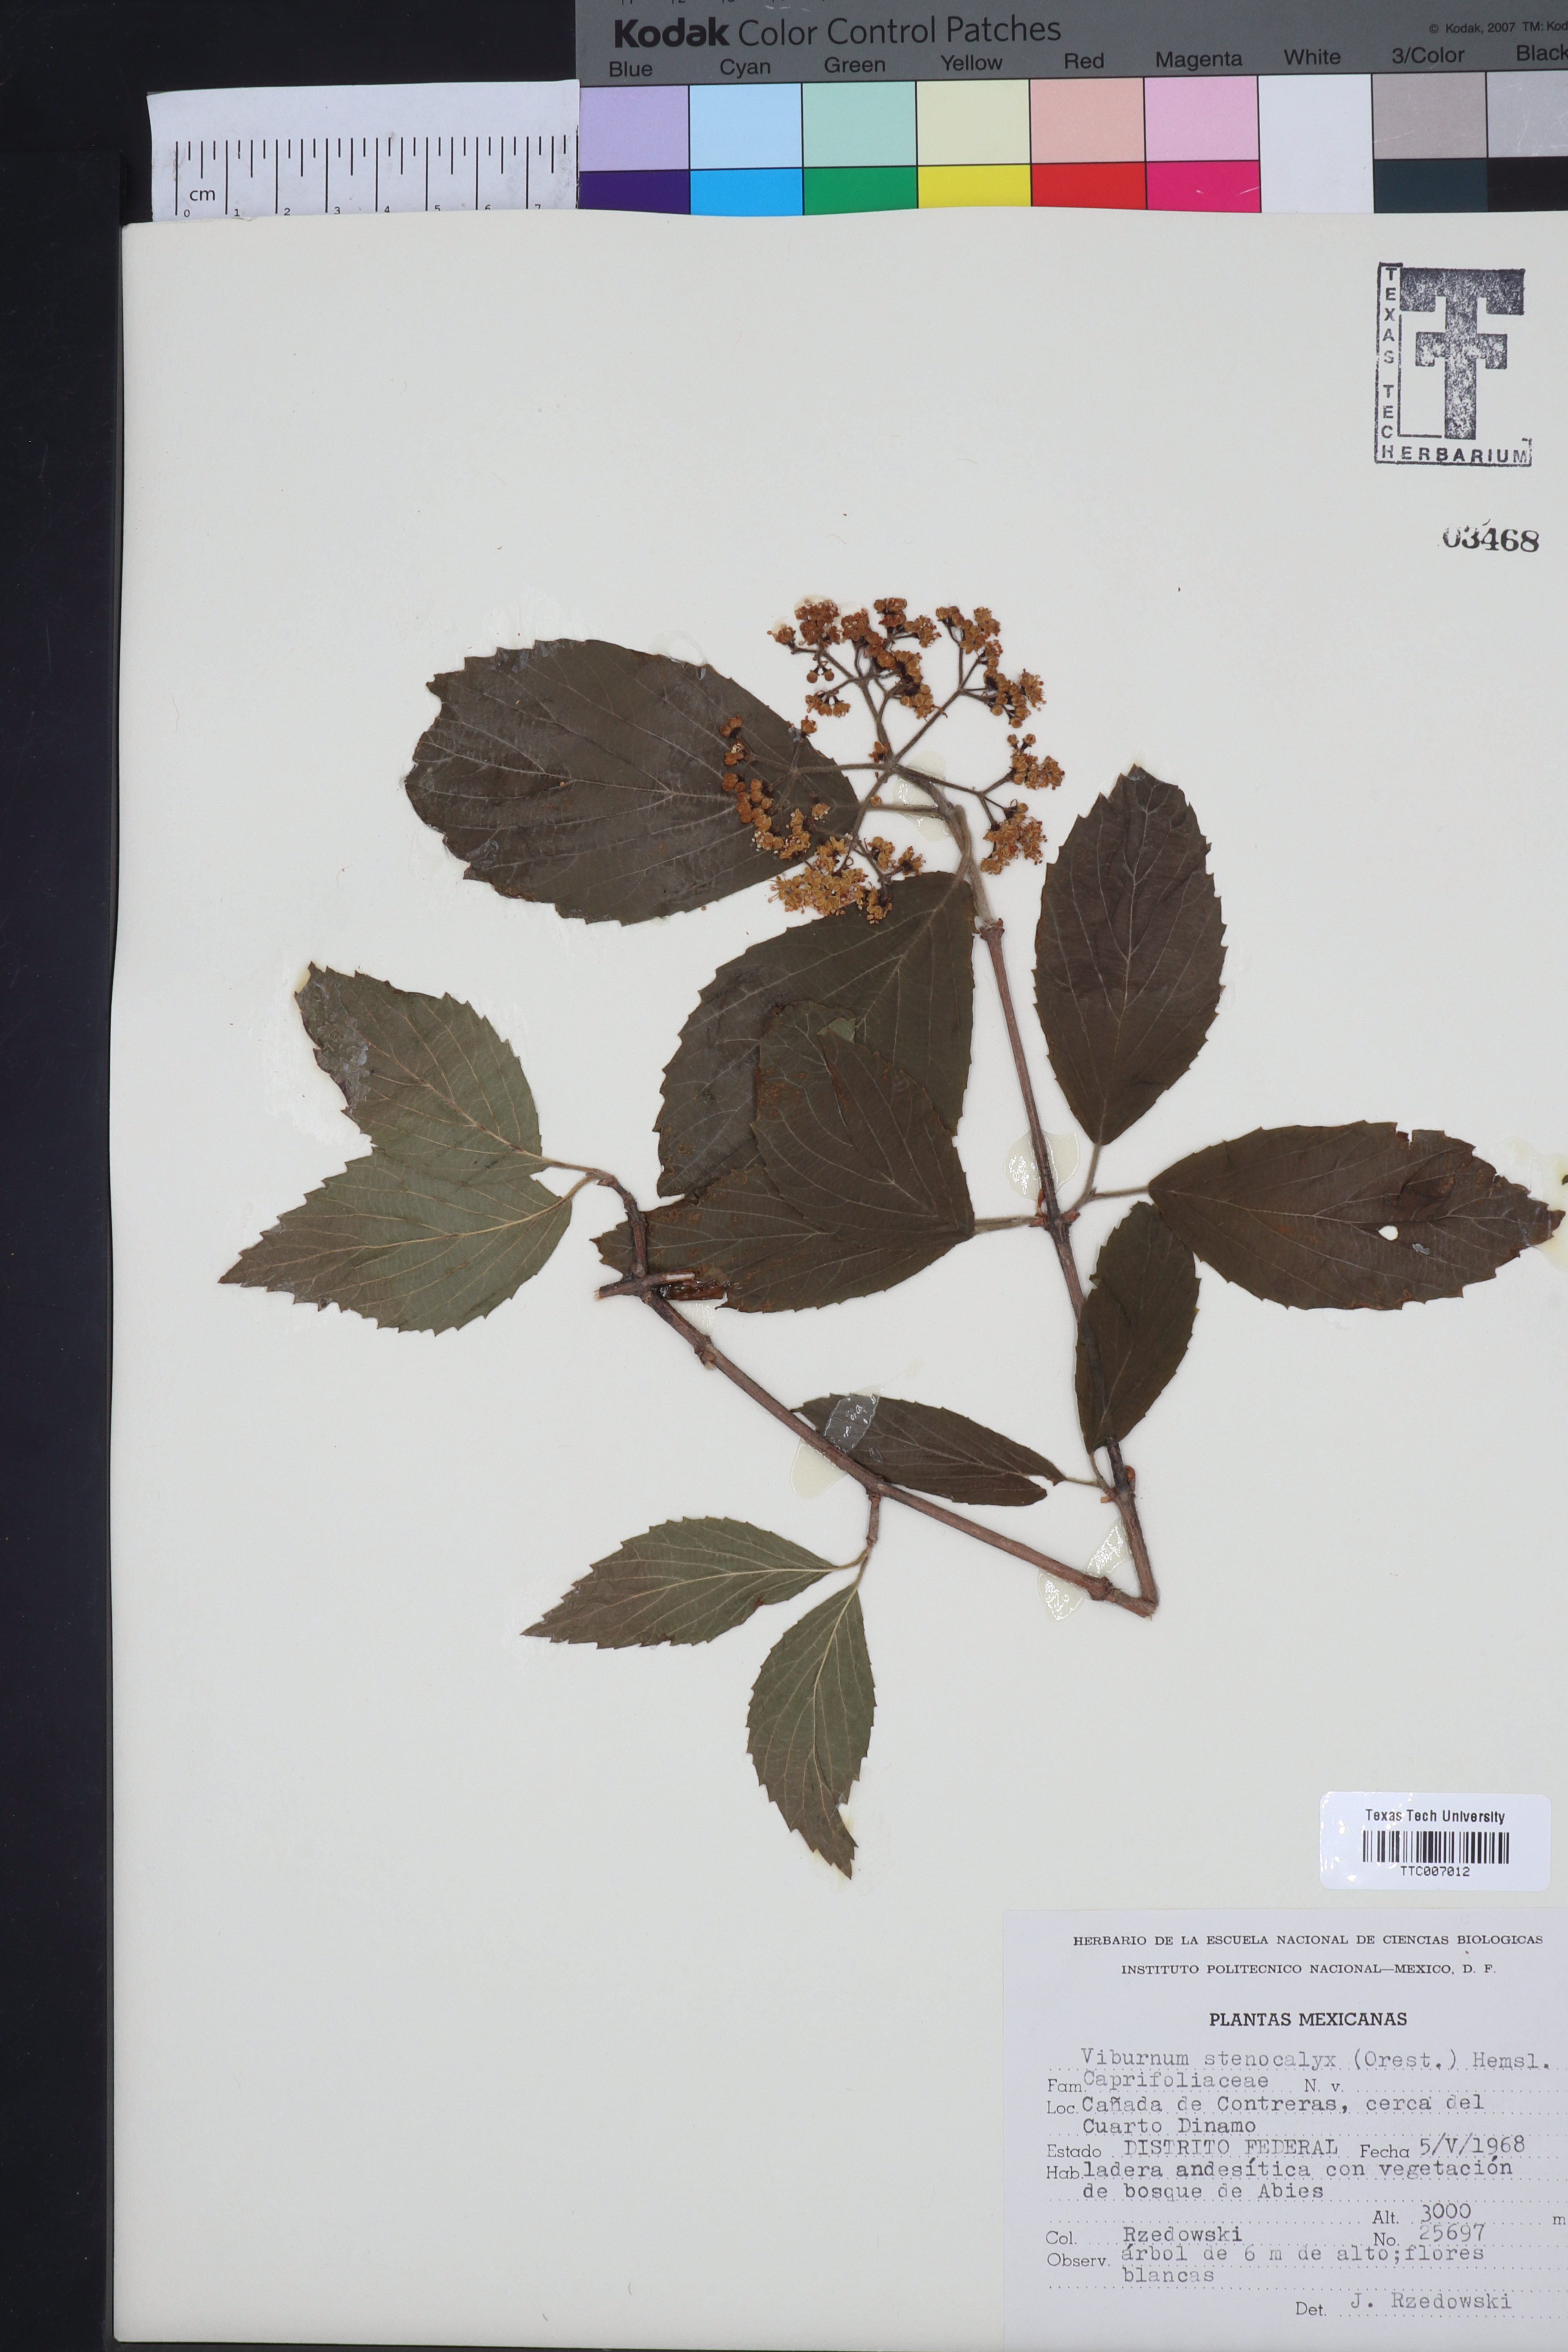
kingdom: Plantae
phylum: Tracheophyta
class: Magnoliopsida
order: Dipsacales
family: Viburnaceae
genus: Viburnum
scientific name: Viburnum stenocalyx
